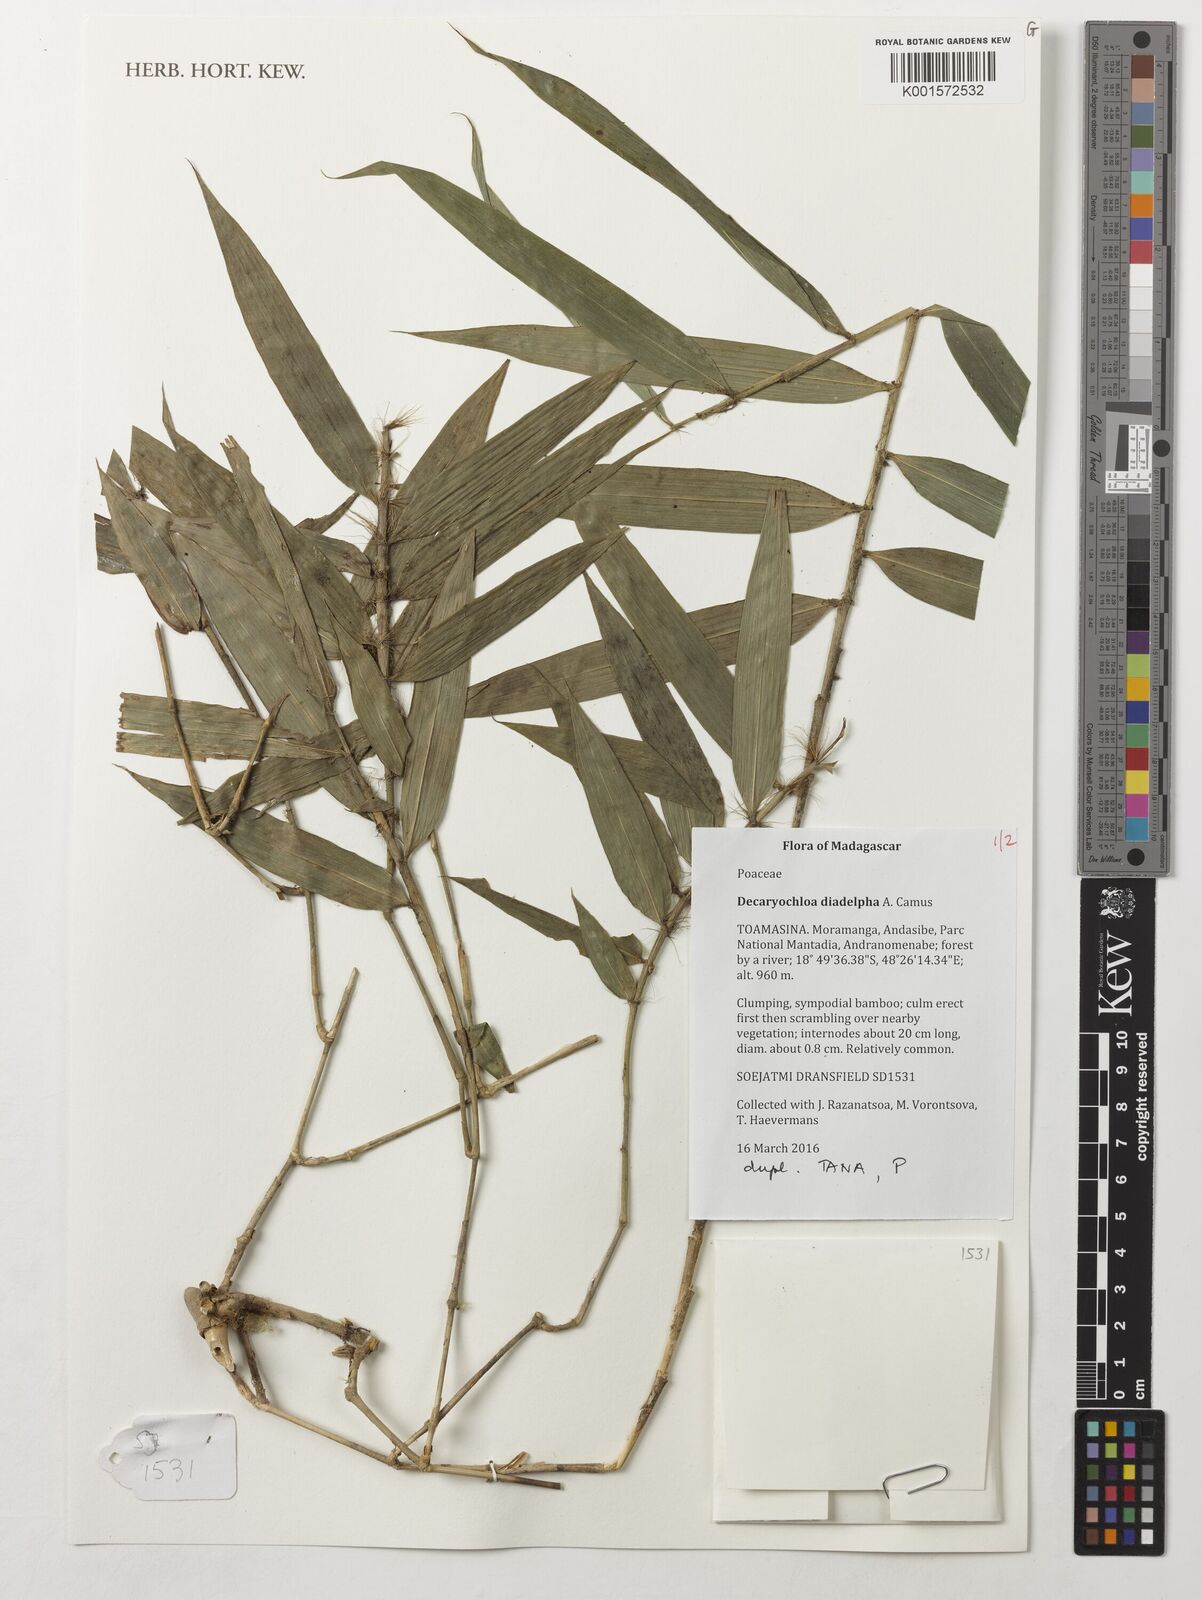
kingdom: Plantae
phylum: Tracheophyta
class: Liliopsida
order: Poales
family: Poaceae
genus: Decaryochloa
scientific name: Decaryochloa diadelpha
